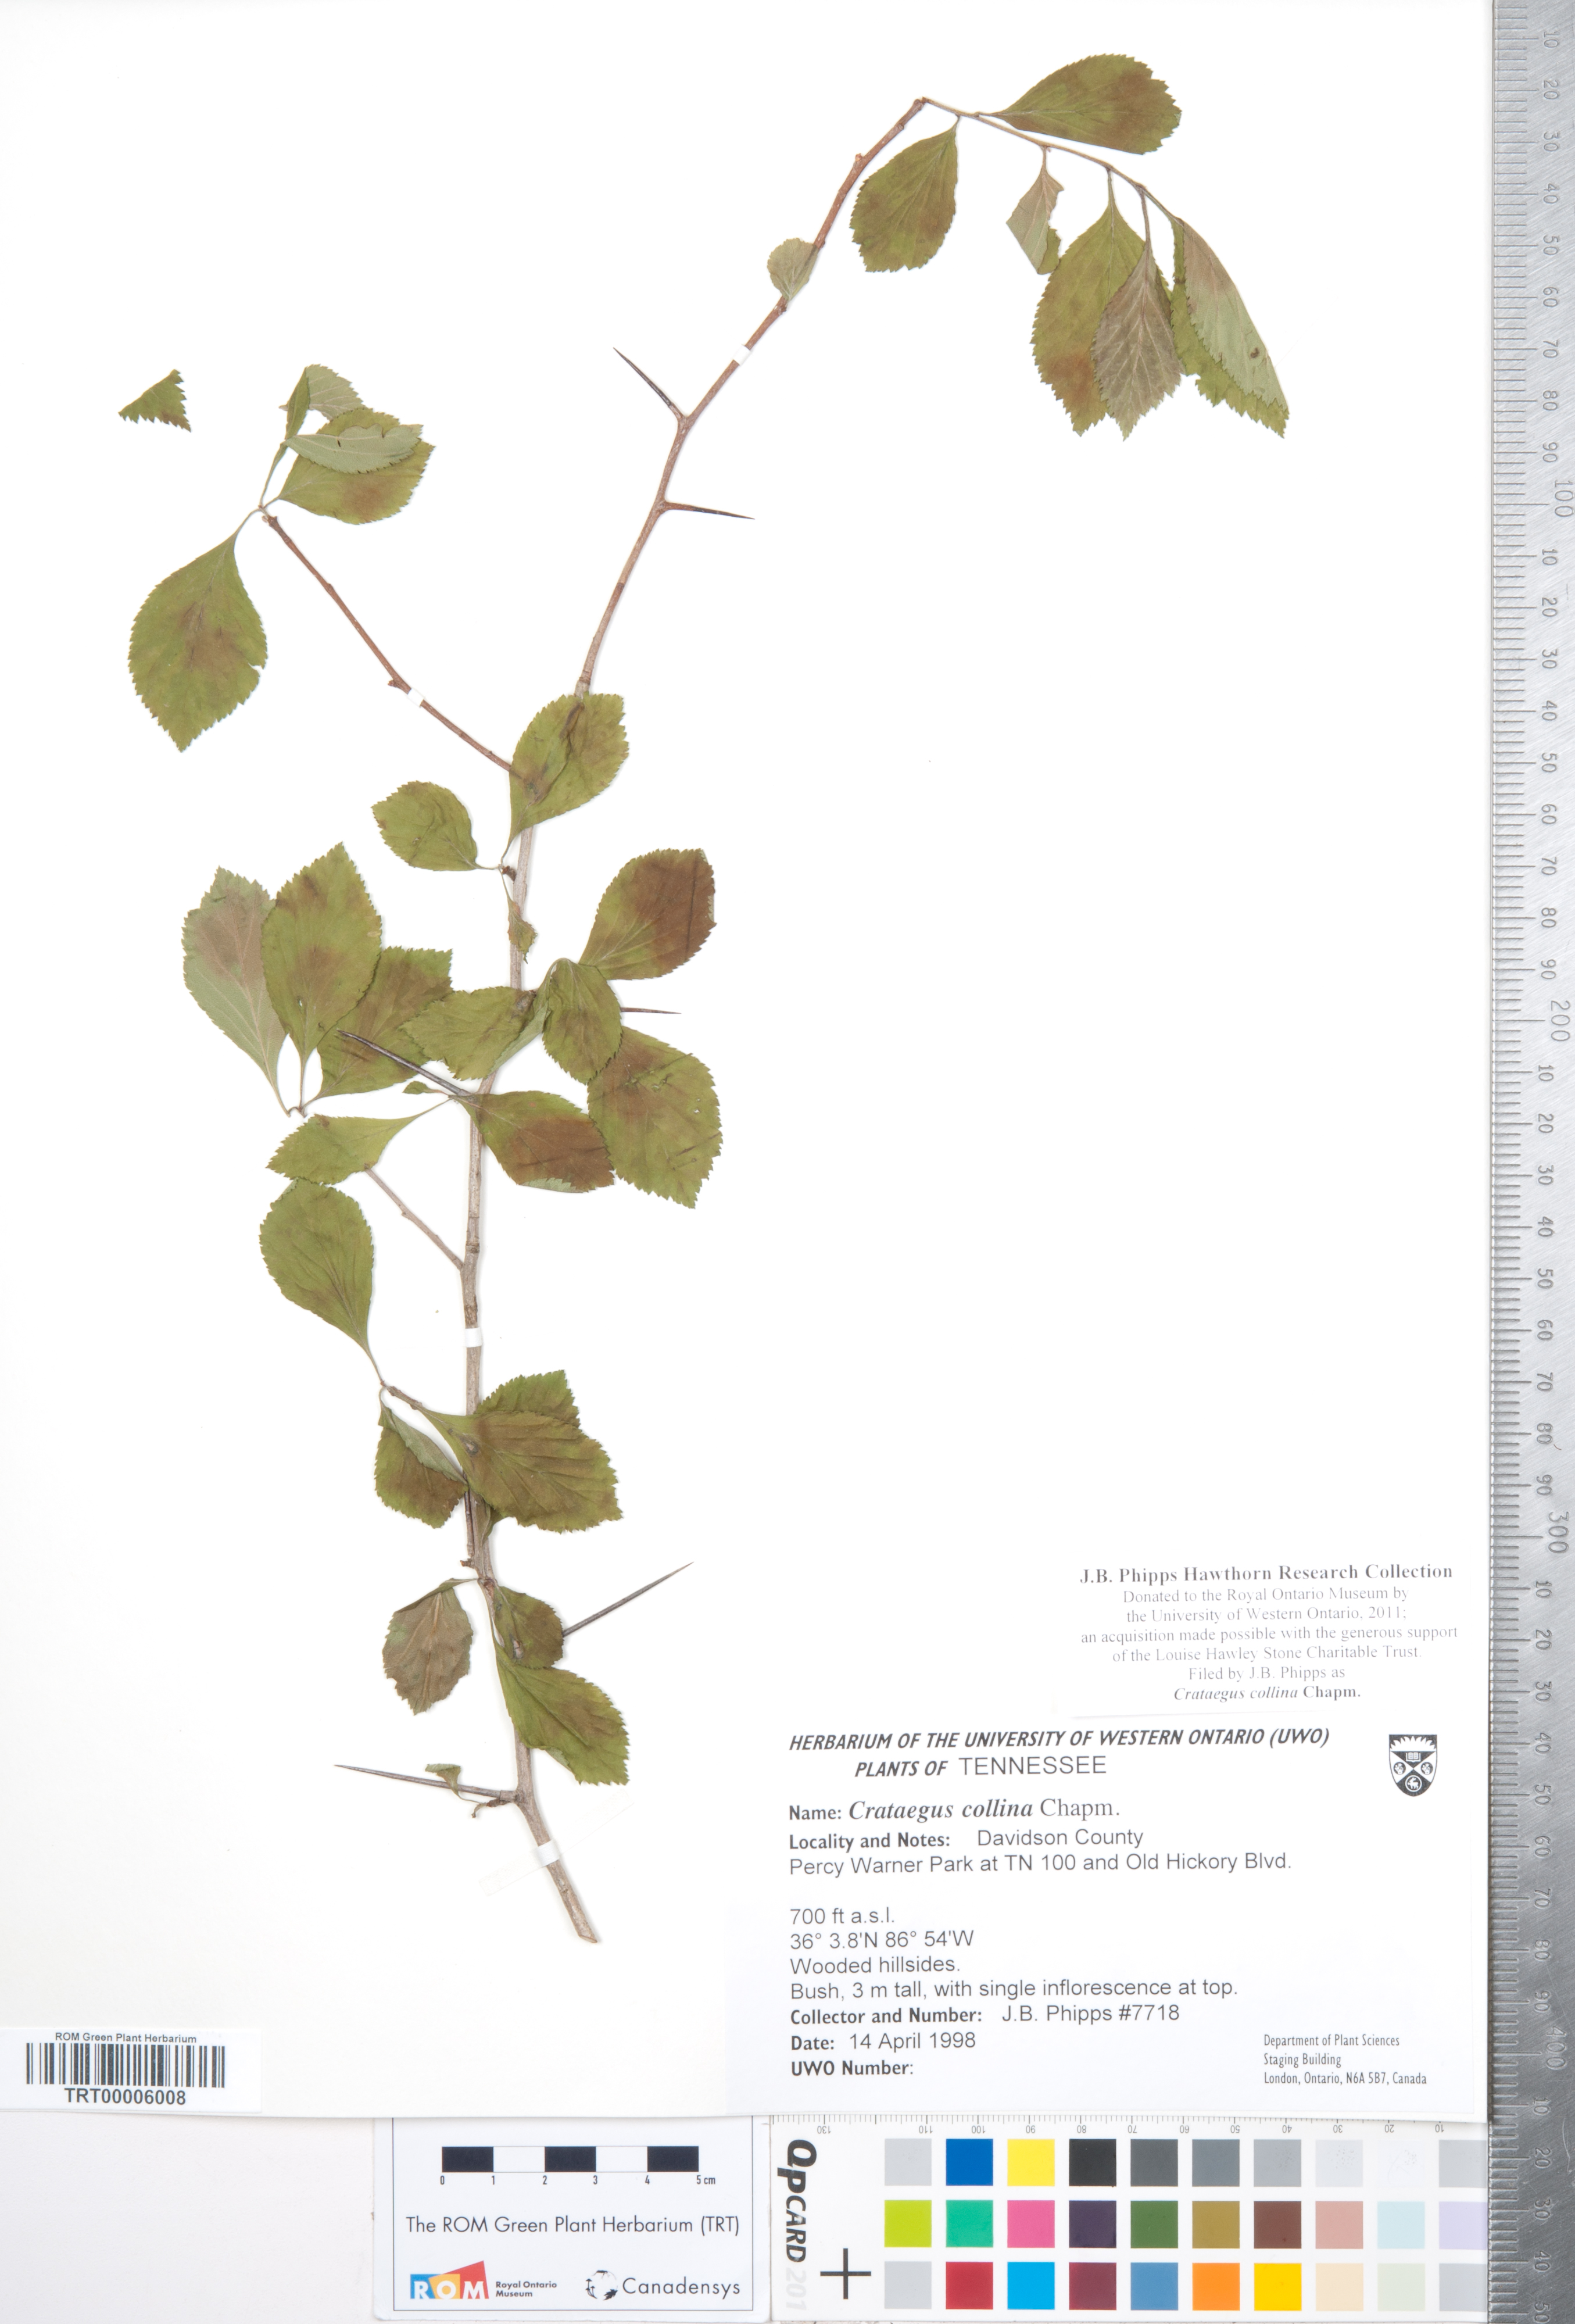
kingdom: Plantae
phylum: Tracheophyta
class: Magnoliopsida
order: Rosales
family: Rosaceae
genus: Crataegus
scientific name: Crataegus collina
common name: Hillside hawthorn
